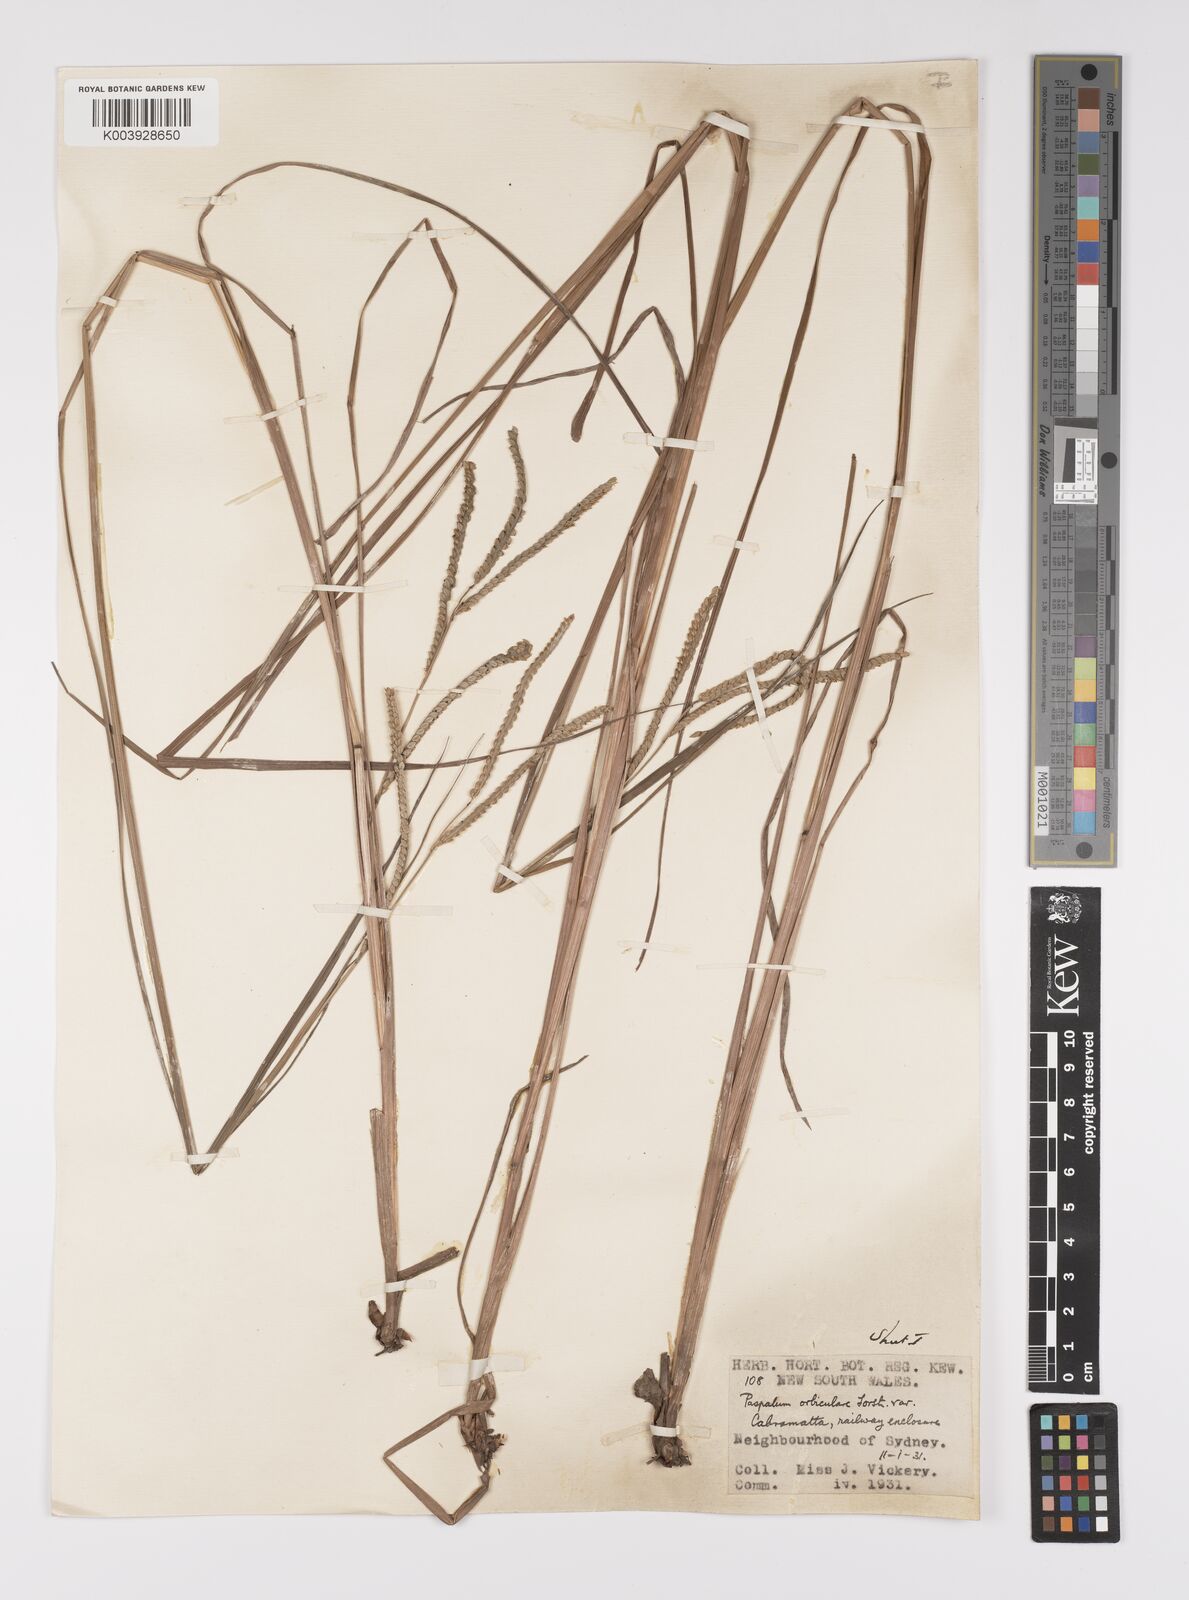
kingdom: Plantae
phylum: Tracheophyta
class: Liliopsida
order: Poales
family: Poaceae
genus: Paspalum
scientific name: Paspalum scrobiculatum
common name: Kodo millet
